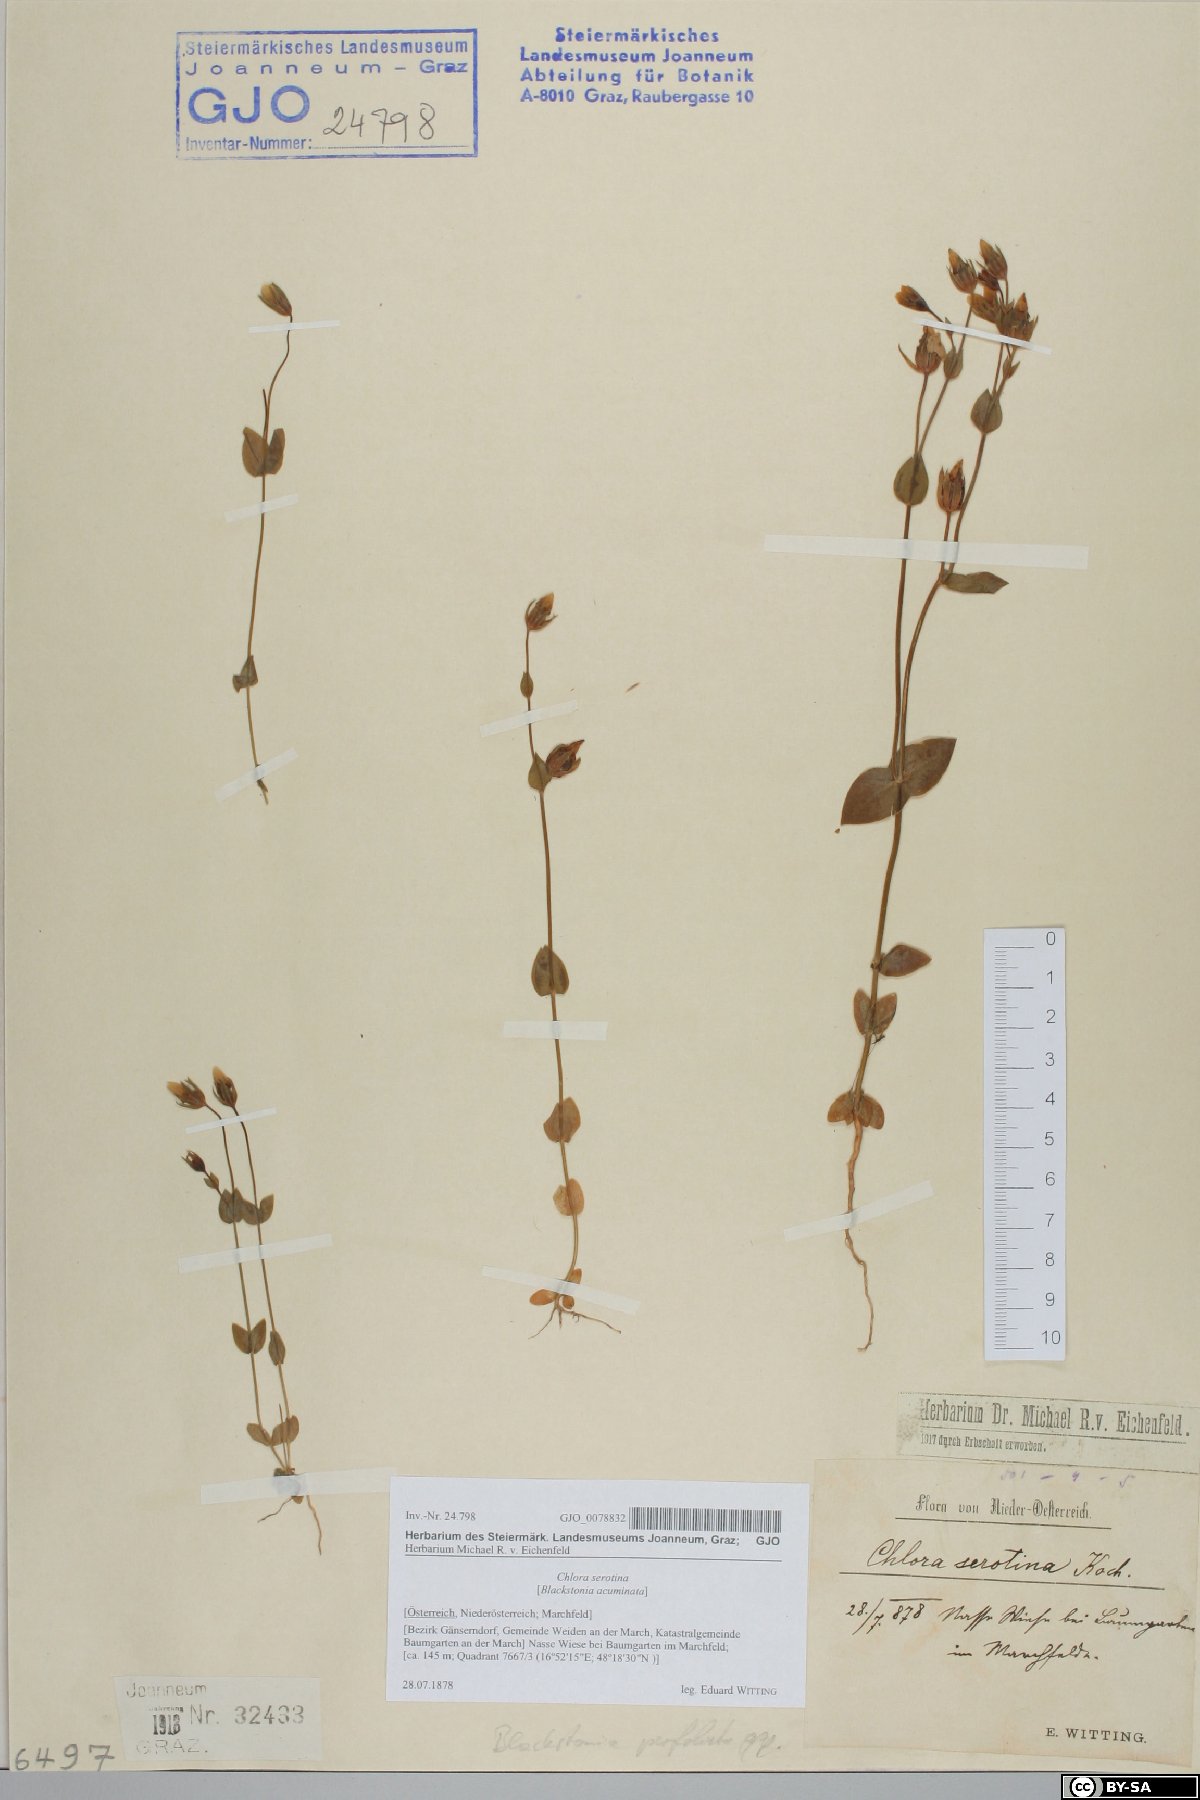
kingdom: Plantae
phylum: Tracheophyta
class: Magnoliopsida
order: Gentianales
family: Gentianaceae
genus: Blackstonia
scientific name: Blackstonia acuminata
